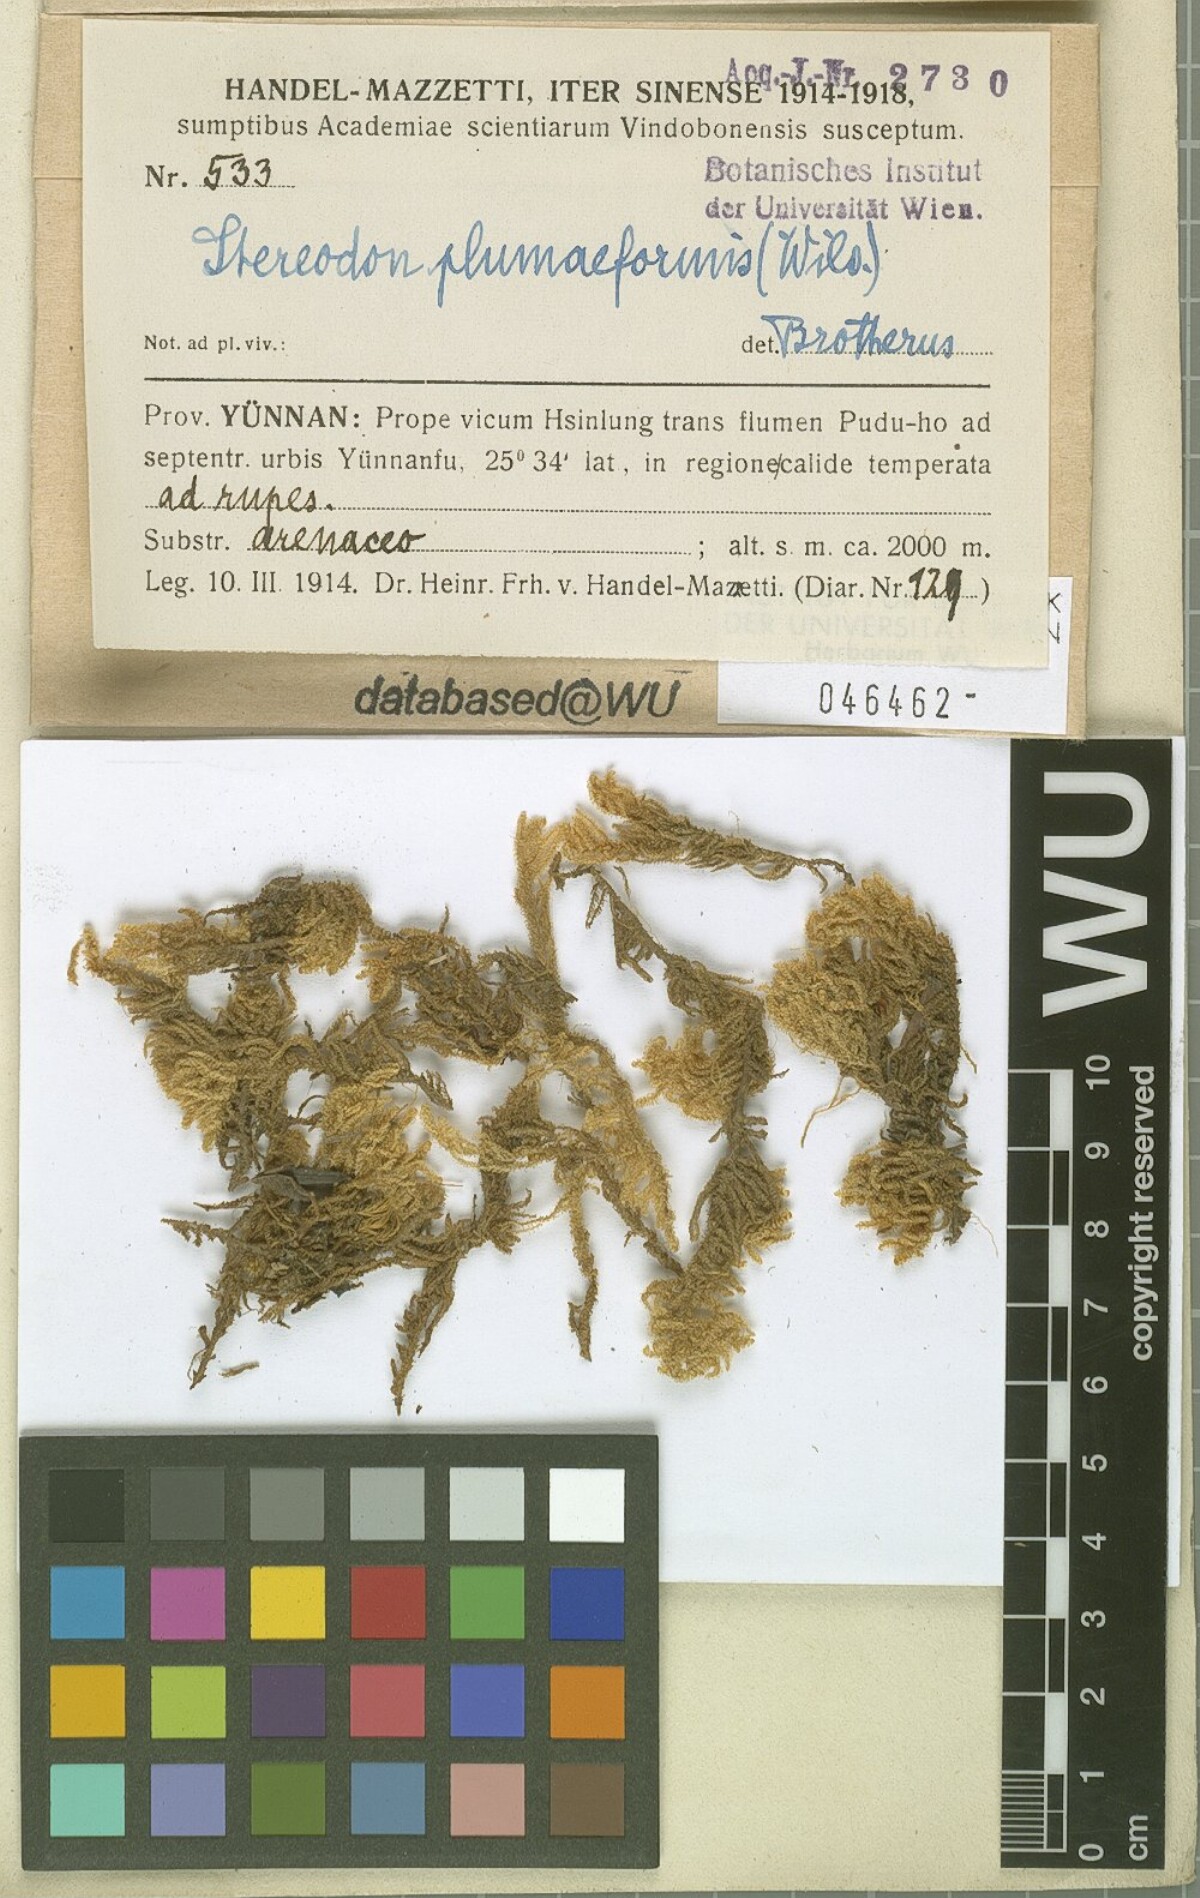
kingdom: Plantae
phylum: Bryophyta
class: Bryopsida
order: Hypnales
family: Hypnaceae
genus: Hypnum
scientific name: Hypnum plumaeforme
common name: Cypress-leaved plaitmoss
